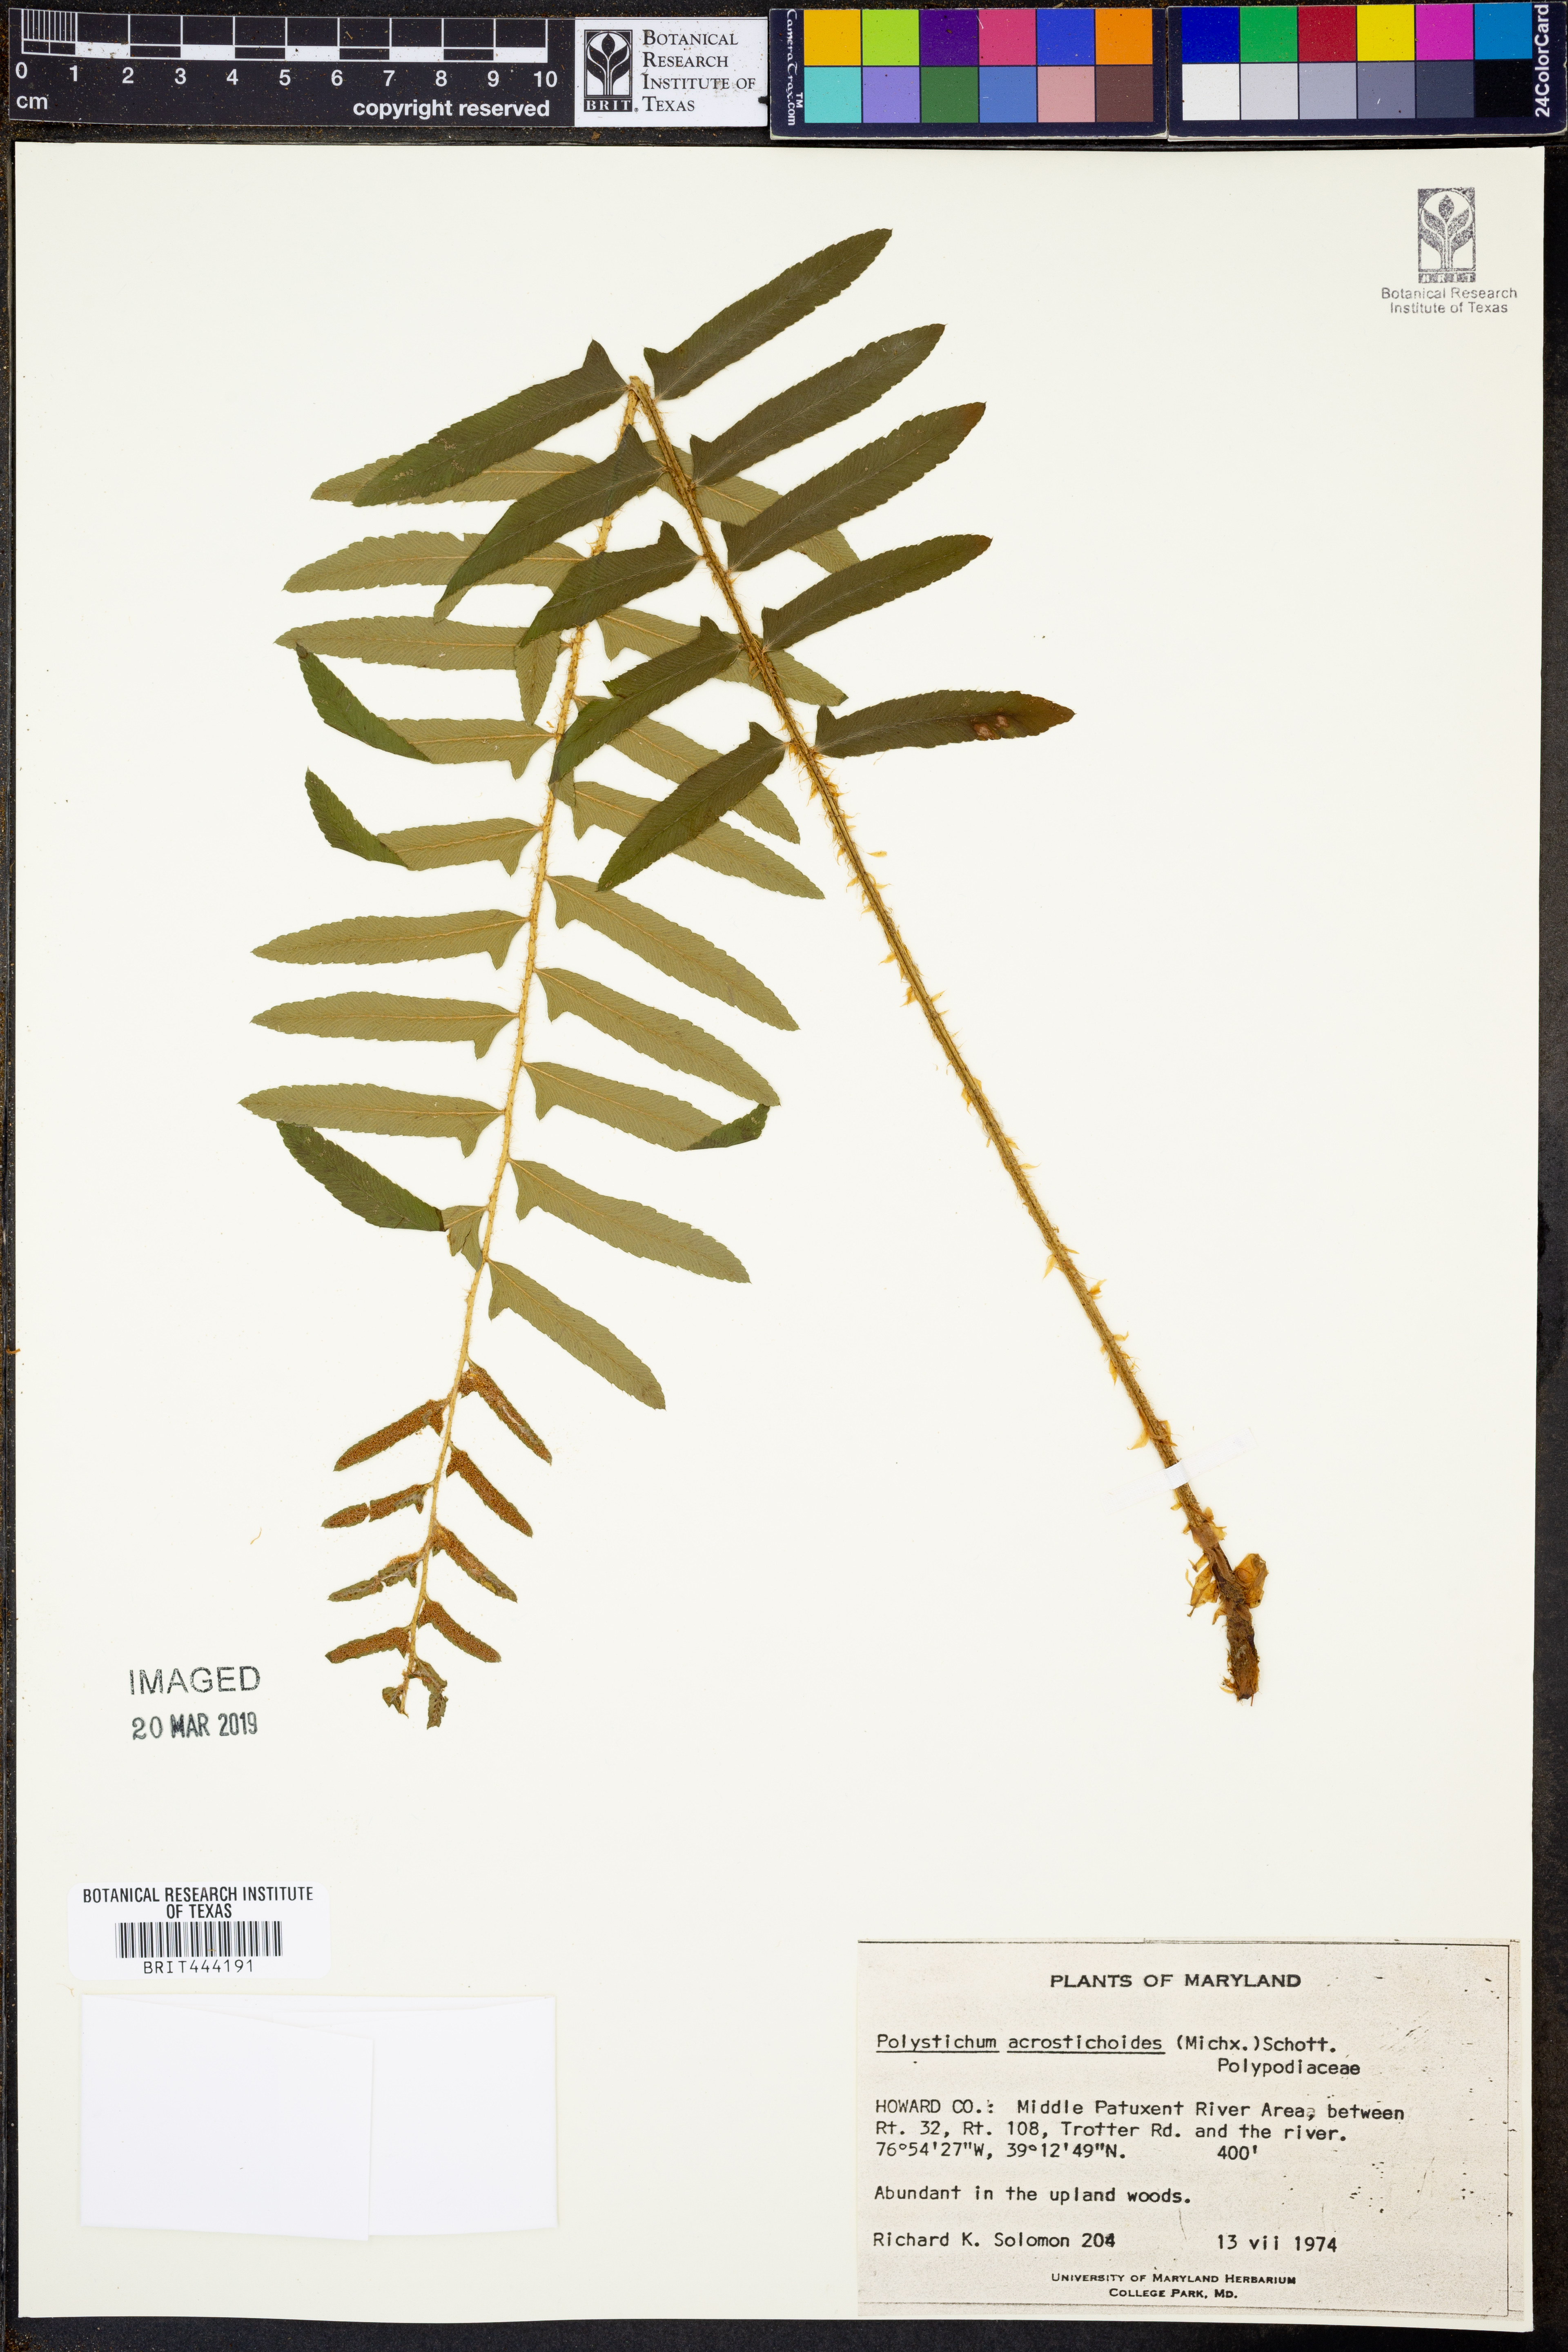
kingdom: Plantae
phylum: Tracheophyta
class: Polypodiopsida
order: Polypodiales
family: Dryopteridaceae
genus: Polystichum
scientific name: Polystichum acrostichoides
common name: Christmas fern
